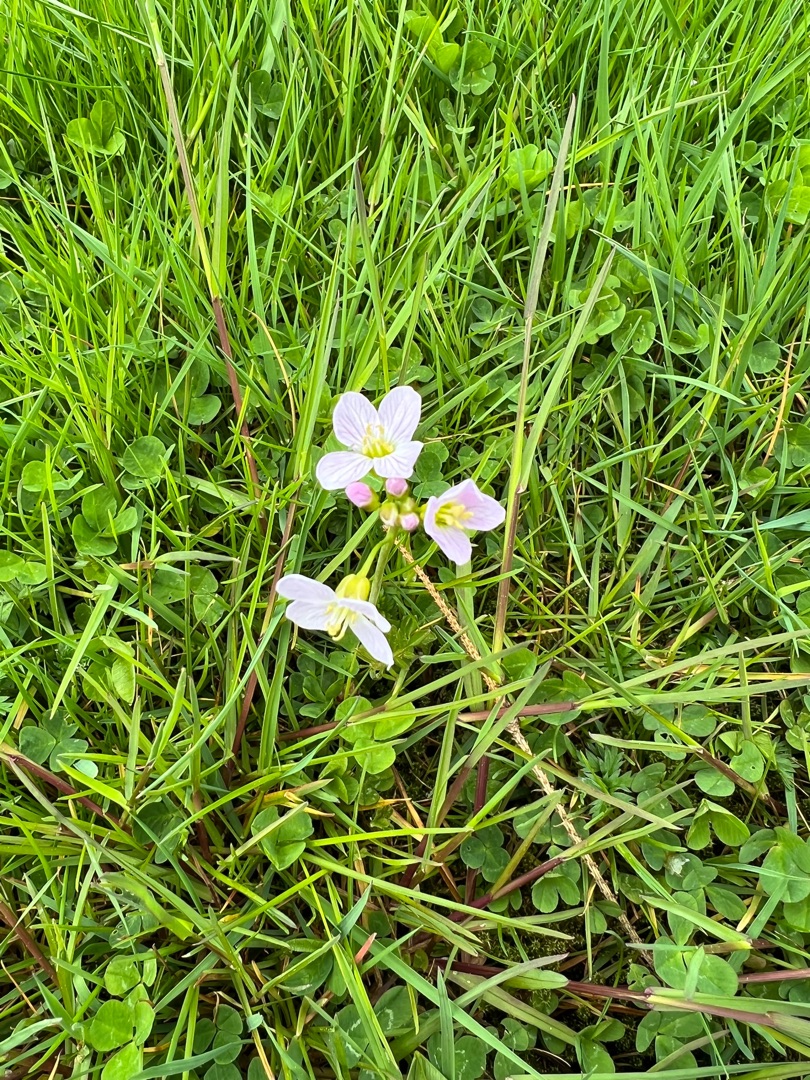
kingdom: Plantae
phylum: Tracheophyta
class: Magnoliopsida
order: Brassicales
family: Brassicaceae
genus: Cardamine
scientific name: Cardamine pratensis
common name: Engkarse
